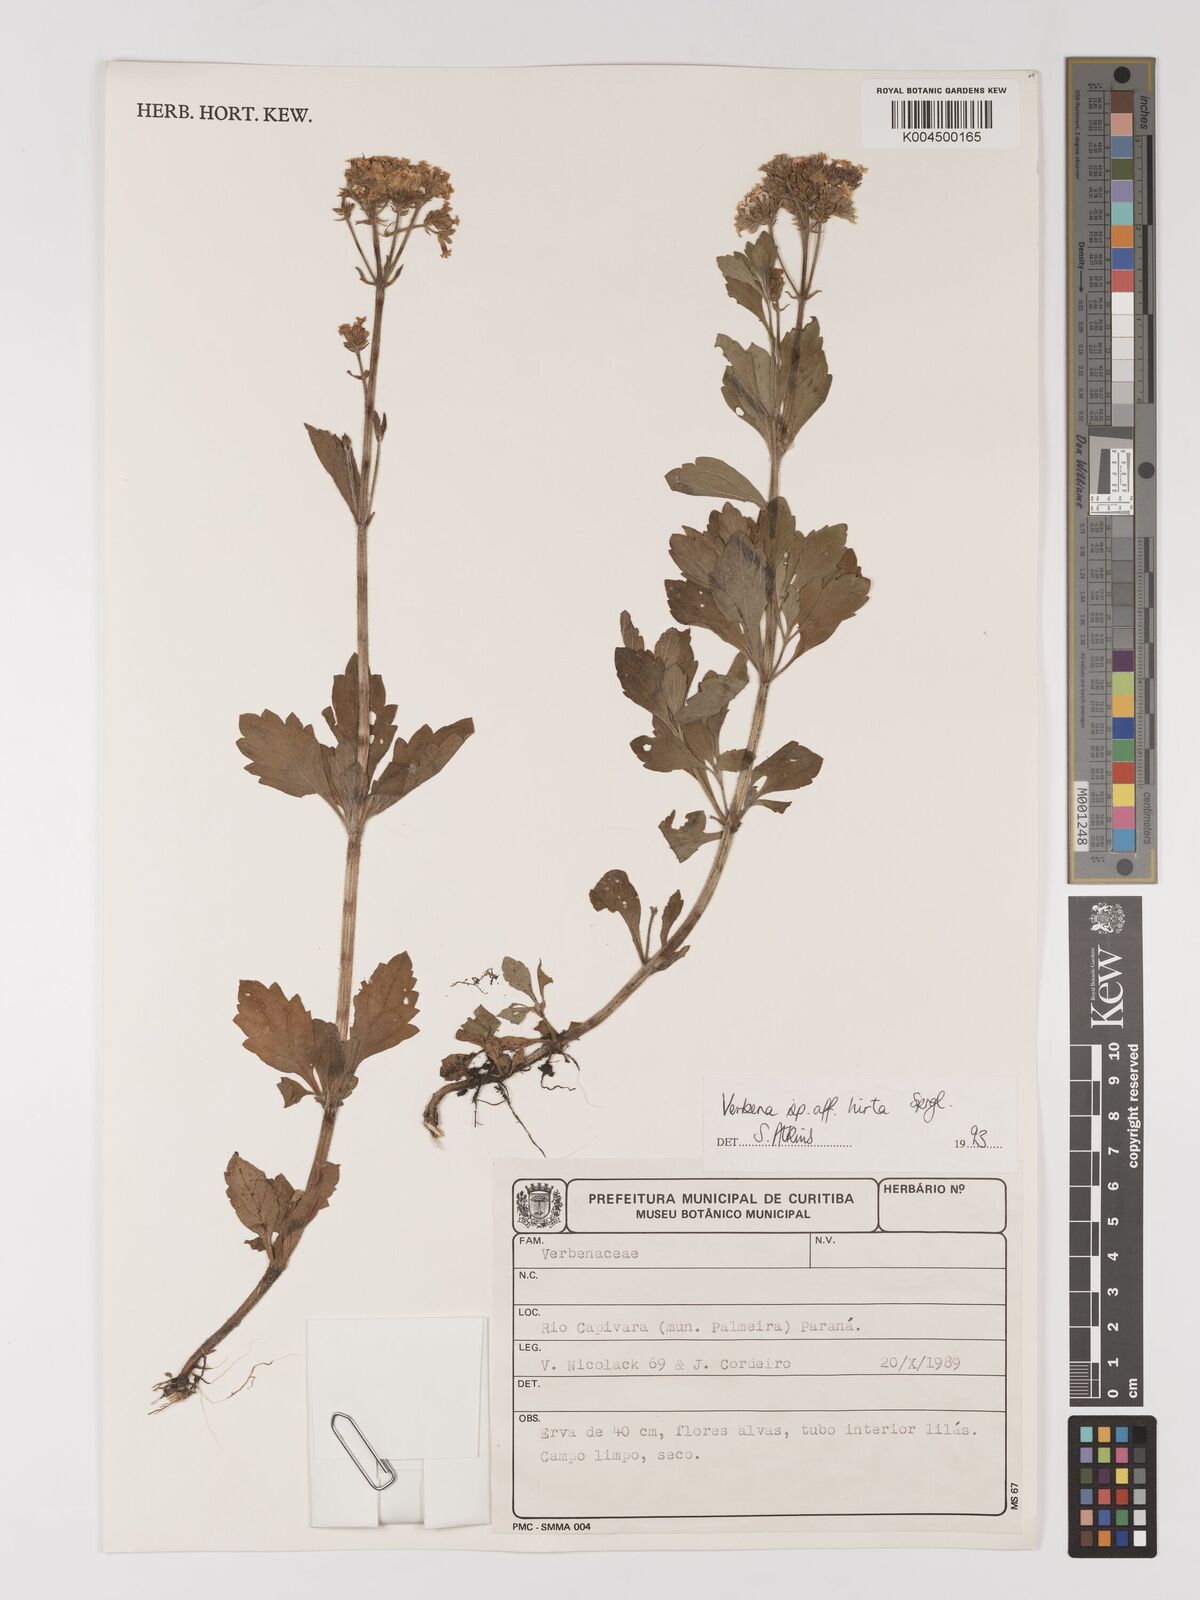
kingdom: Plantae
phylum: Tracheophyta
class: Magnoliopsida
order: Lamiales
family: Verbenaceae
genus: Verbena
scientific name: Verbena hirta
